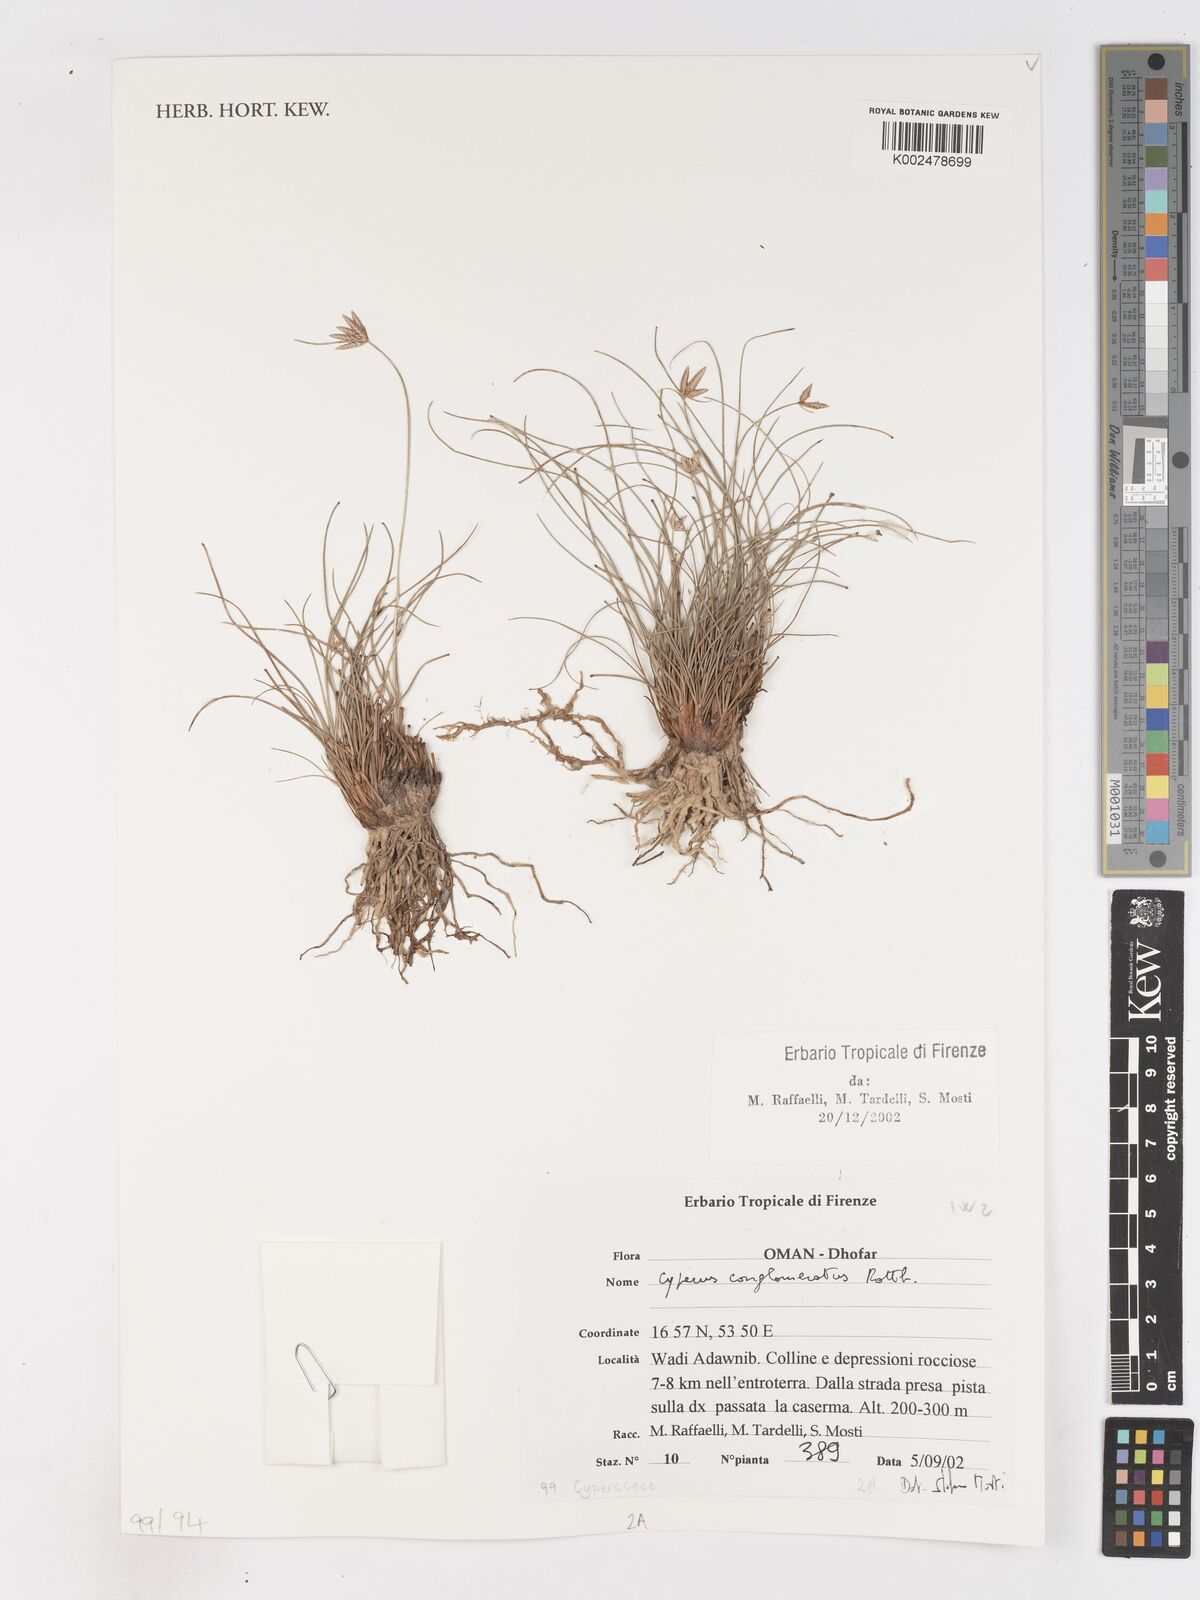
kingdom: Plantae
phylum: Tracheophyta
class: Liliopsida
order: Poales
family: Cyperaceae
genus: Cyperus
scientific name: Cyperus conglomeratus
